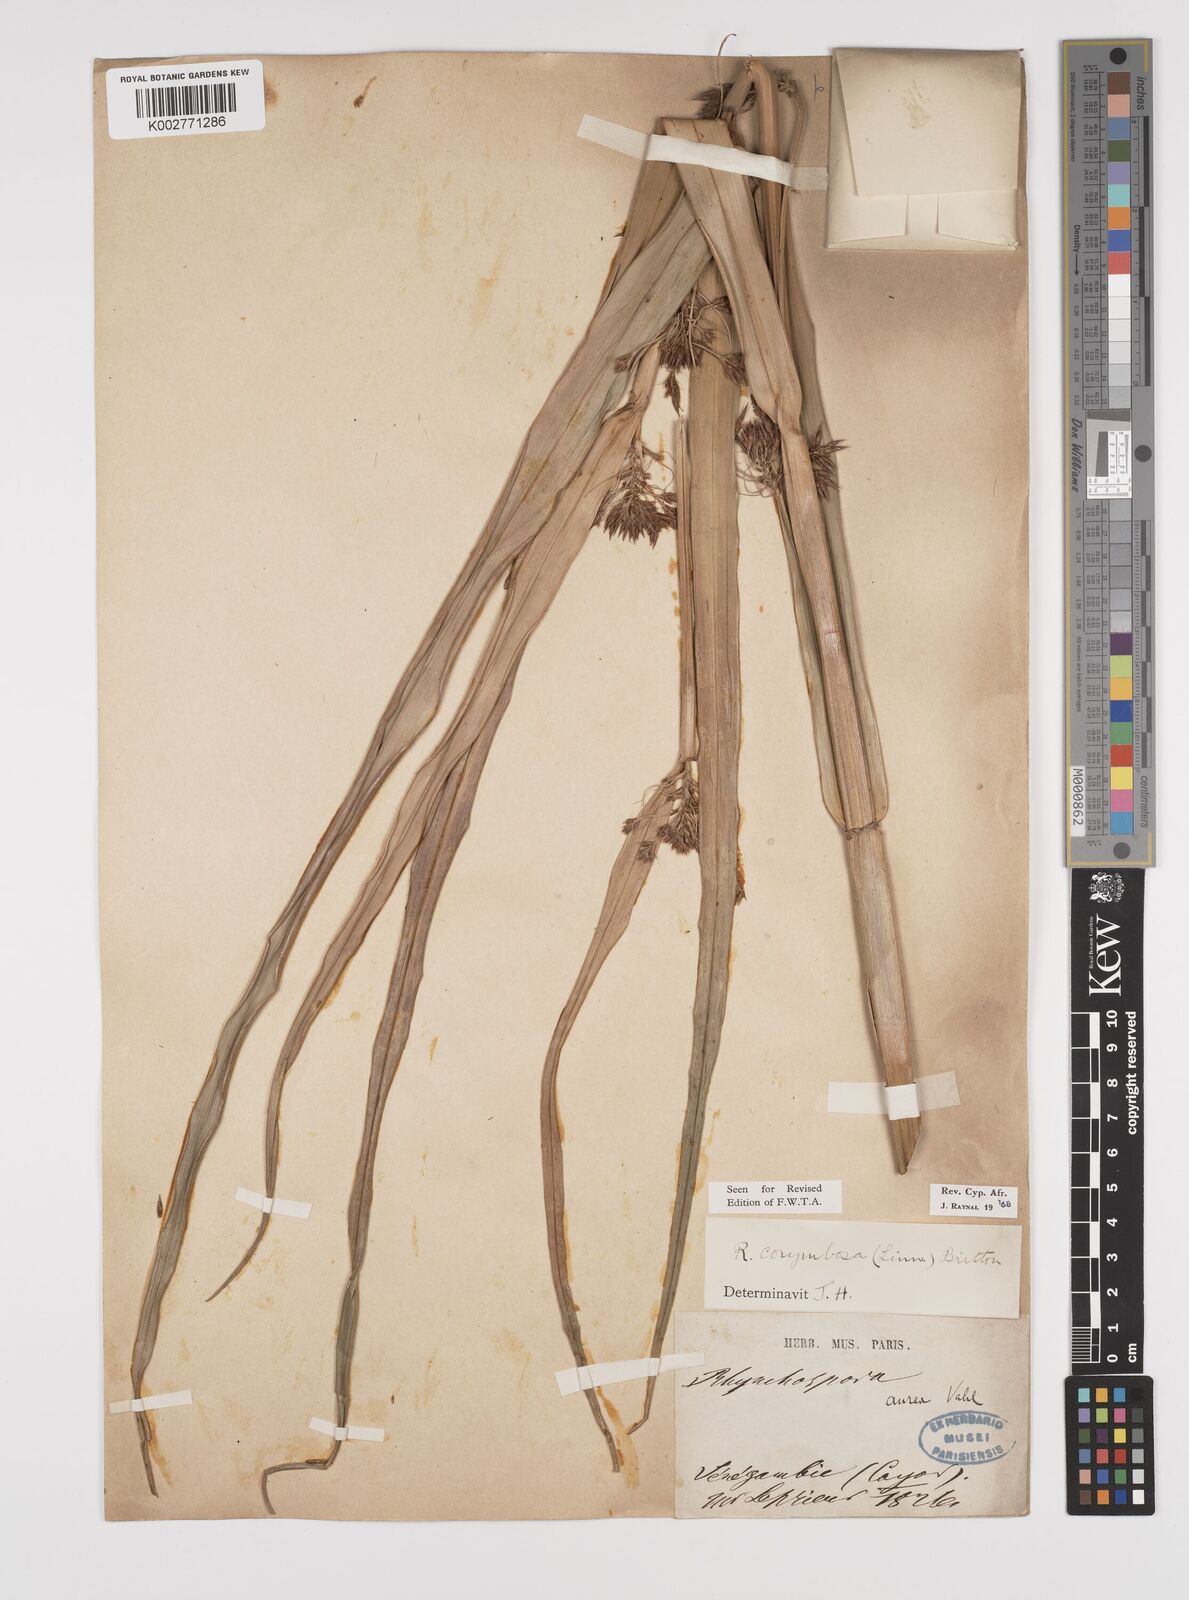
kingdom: Plantae
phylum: Tracheophyta
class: Liliopsida
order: Poales
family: Cyperaceae
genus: Rhynchospora
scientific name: Rhynchospora corymbosa
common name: Golden beak sedge
